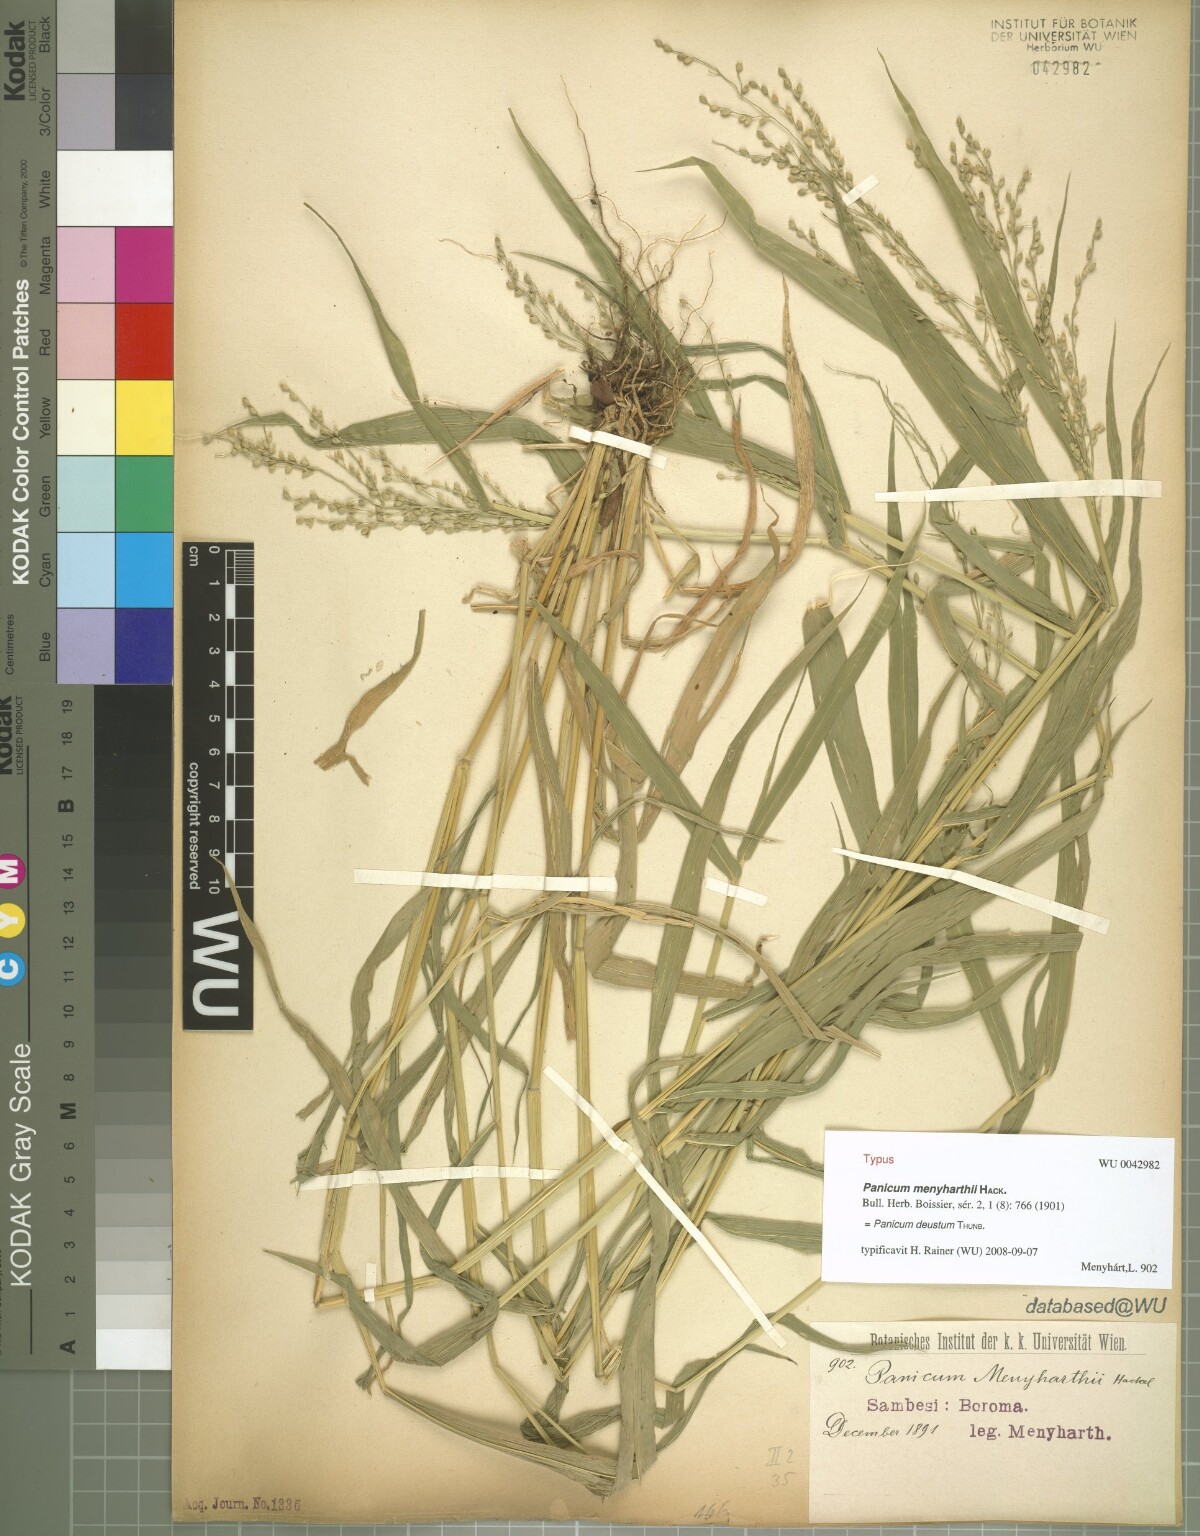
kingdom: Plantae
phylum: Tracheophyta
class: Liliopsida
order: Poales
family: Poaceae
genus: Panicum
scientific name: Panicum deustum
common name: Reed panicum
